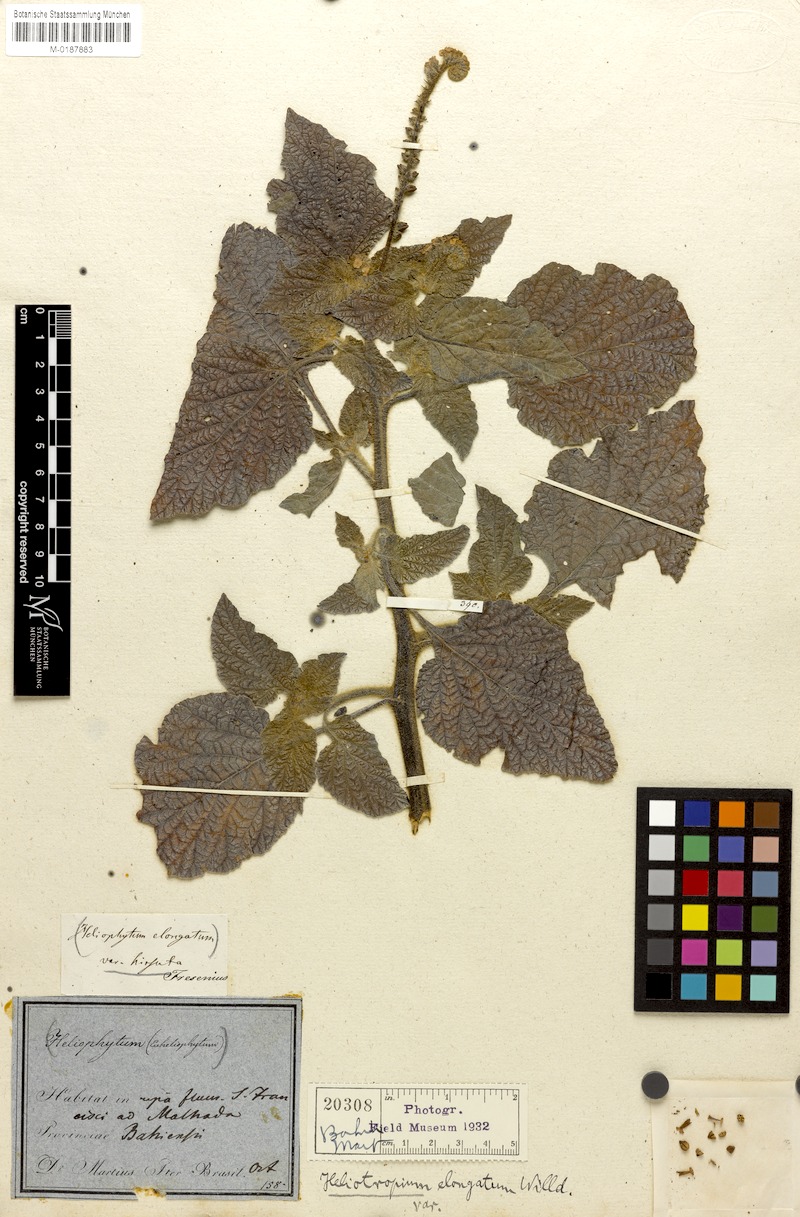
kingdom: Plantae
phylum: Tracheophyta
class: Magnoliopsida
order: Boraginales
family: Heliotropiaceae
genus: Heliotropium
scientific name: Heliotropium elongatum
